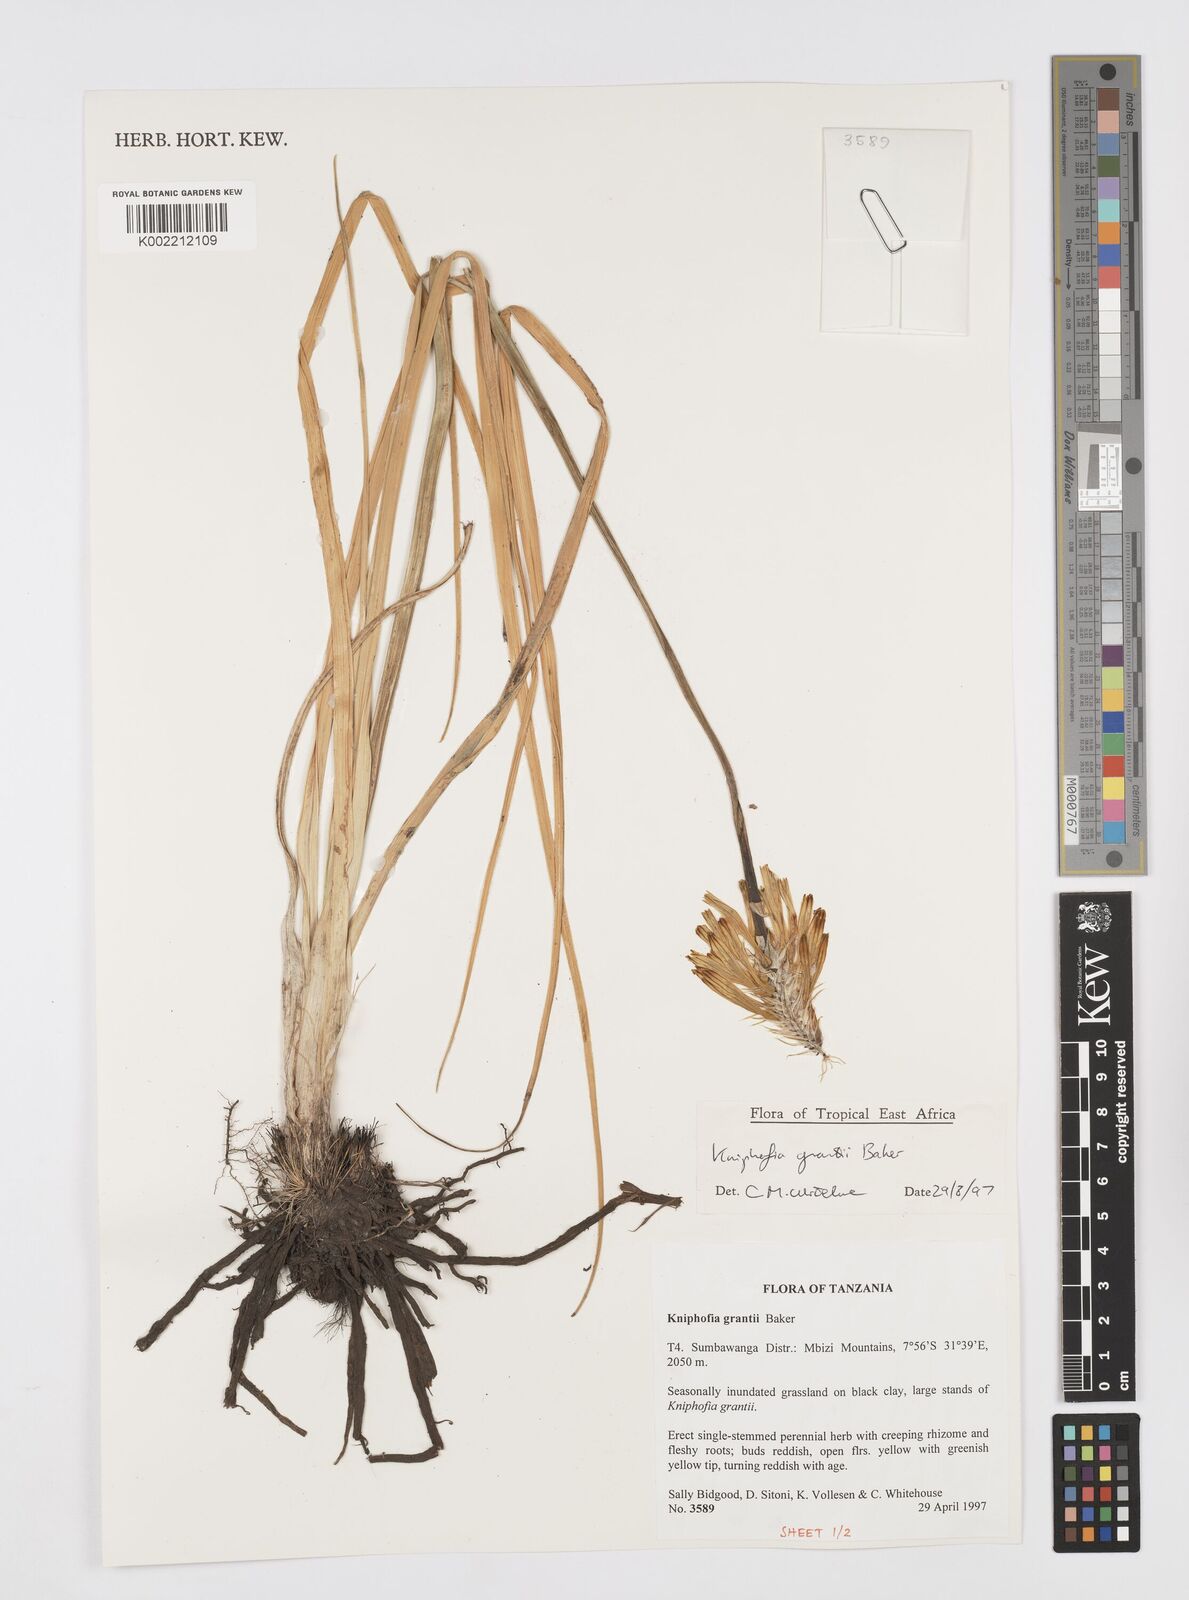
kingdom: Plantae
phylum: Tracheophyta
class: Liliopsida
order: Asparagales
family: Asphodelaceae
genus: Kniphofia
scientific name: Kniphofia grantii
